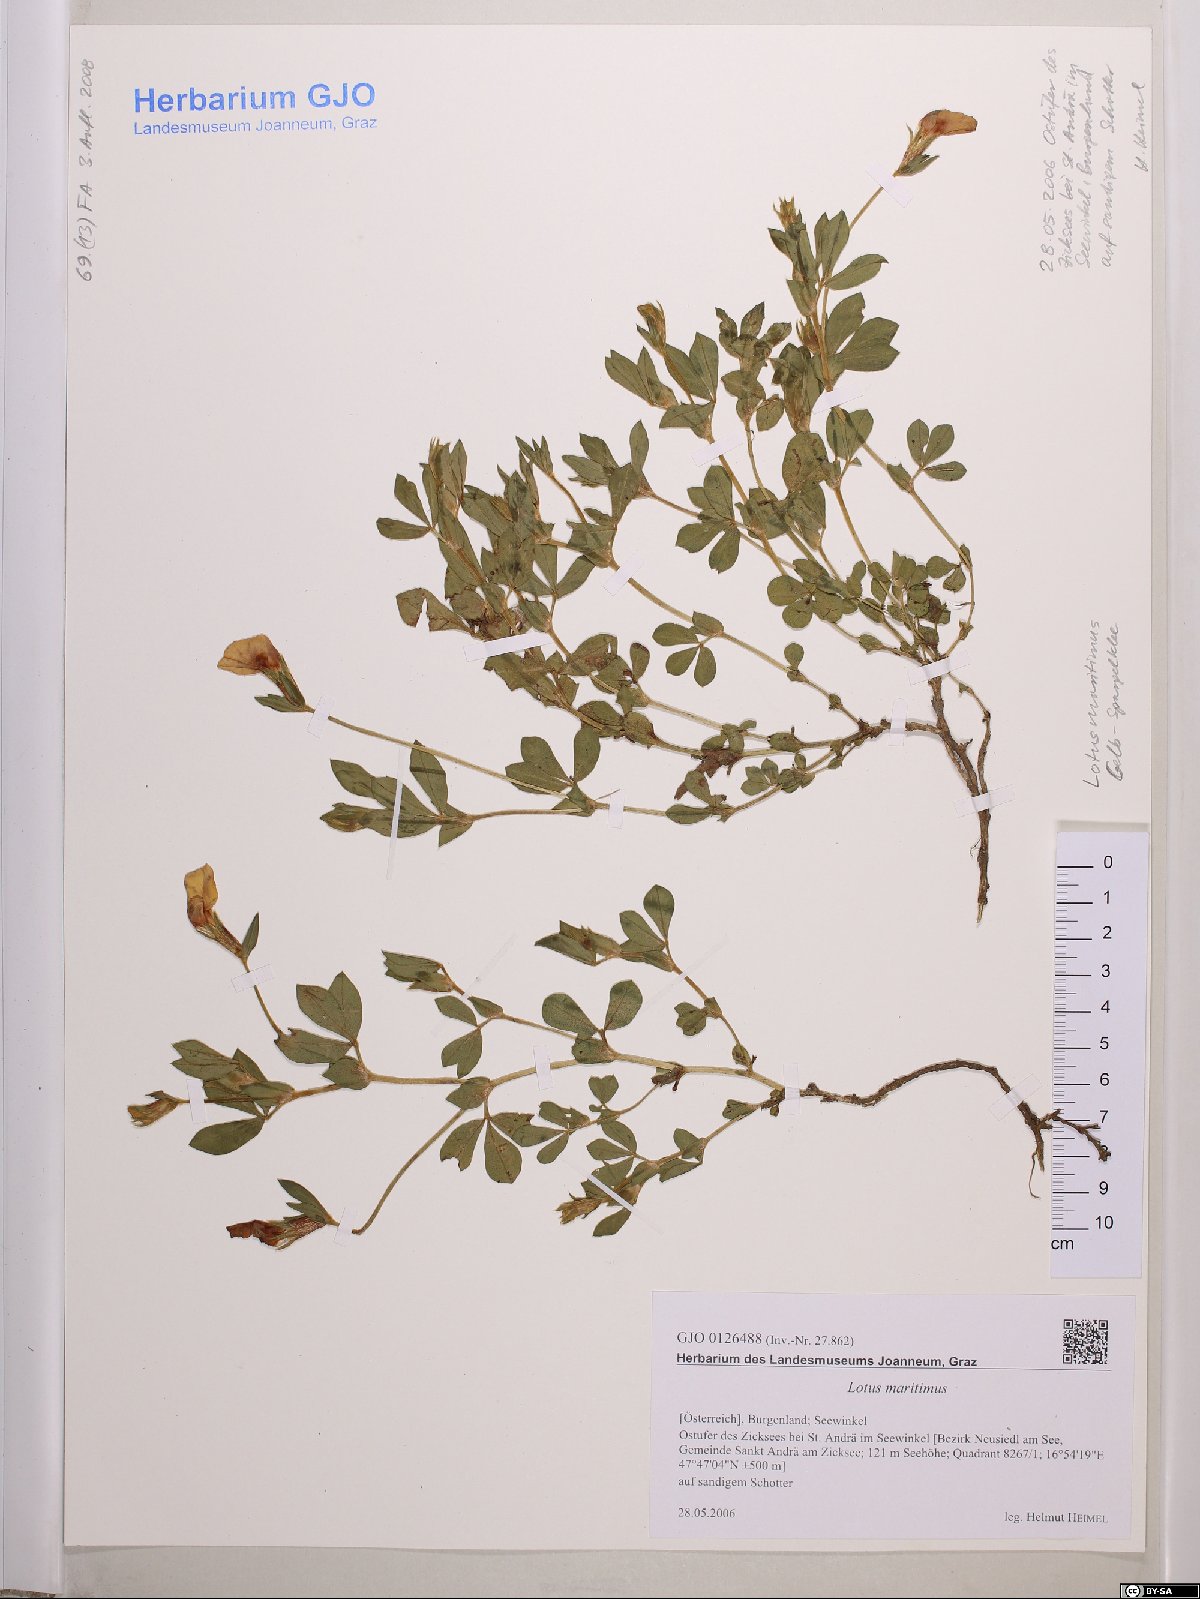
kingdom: Plantae
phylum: Tracheophyta
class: Magnoliopsida
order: Fabales
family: Fabaceae
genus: Lotus
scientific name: Lotus maritimus
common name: Dragon's-teeth
